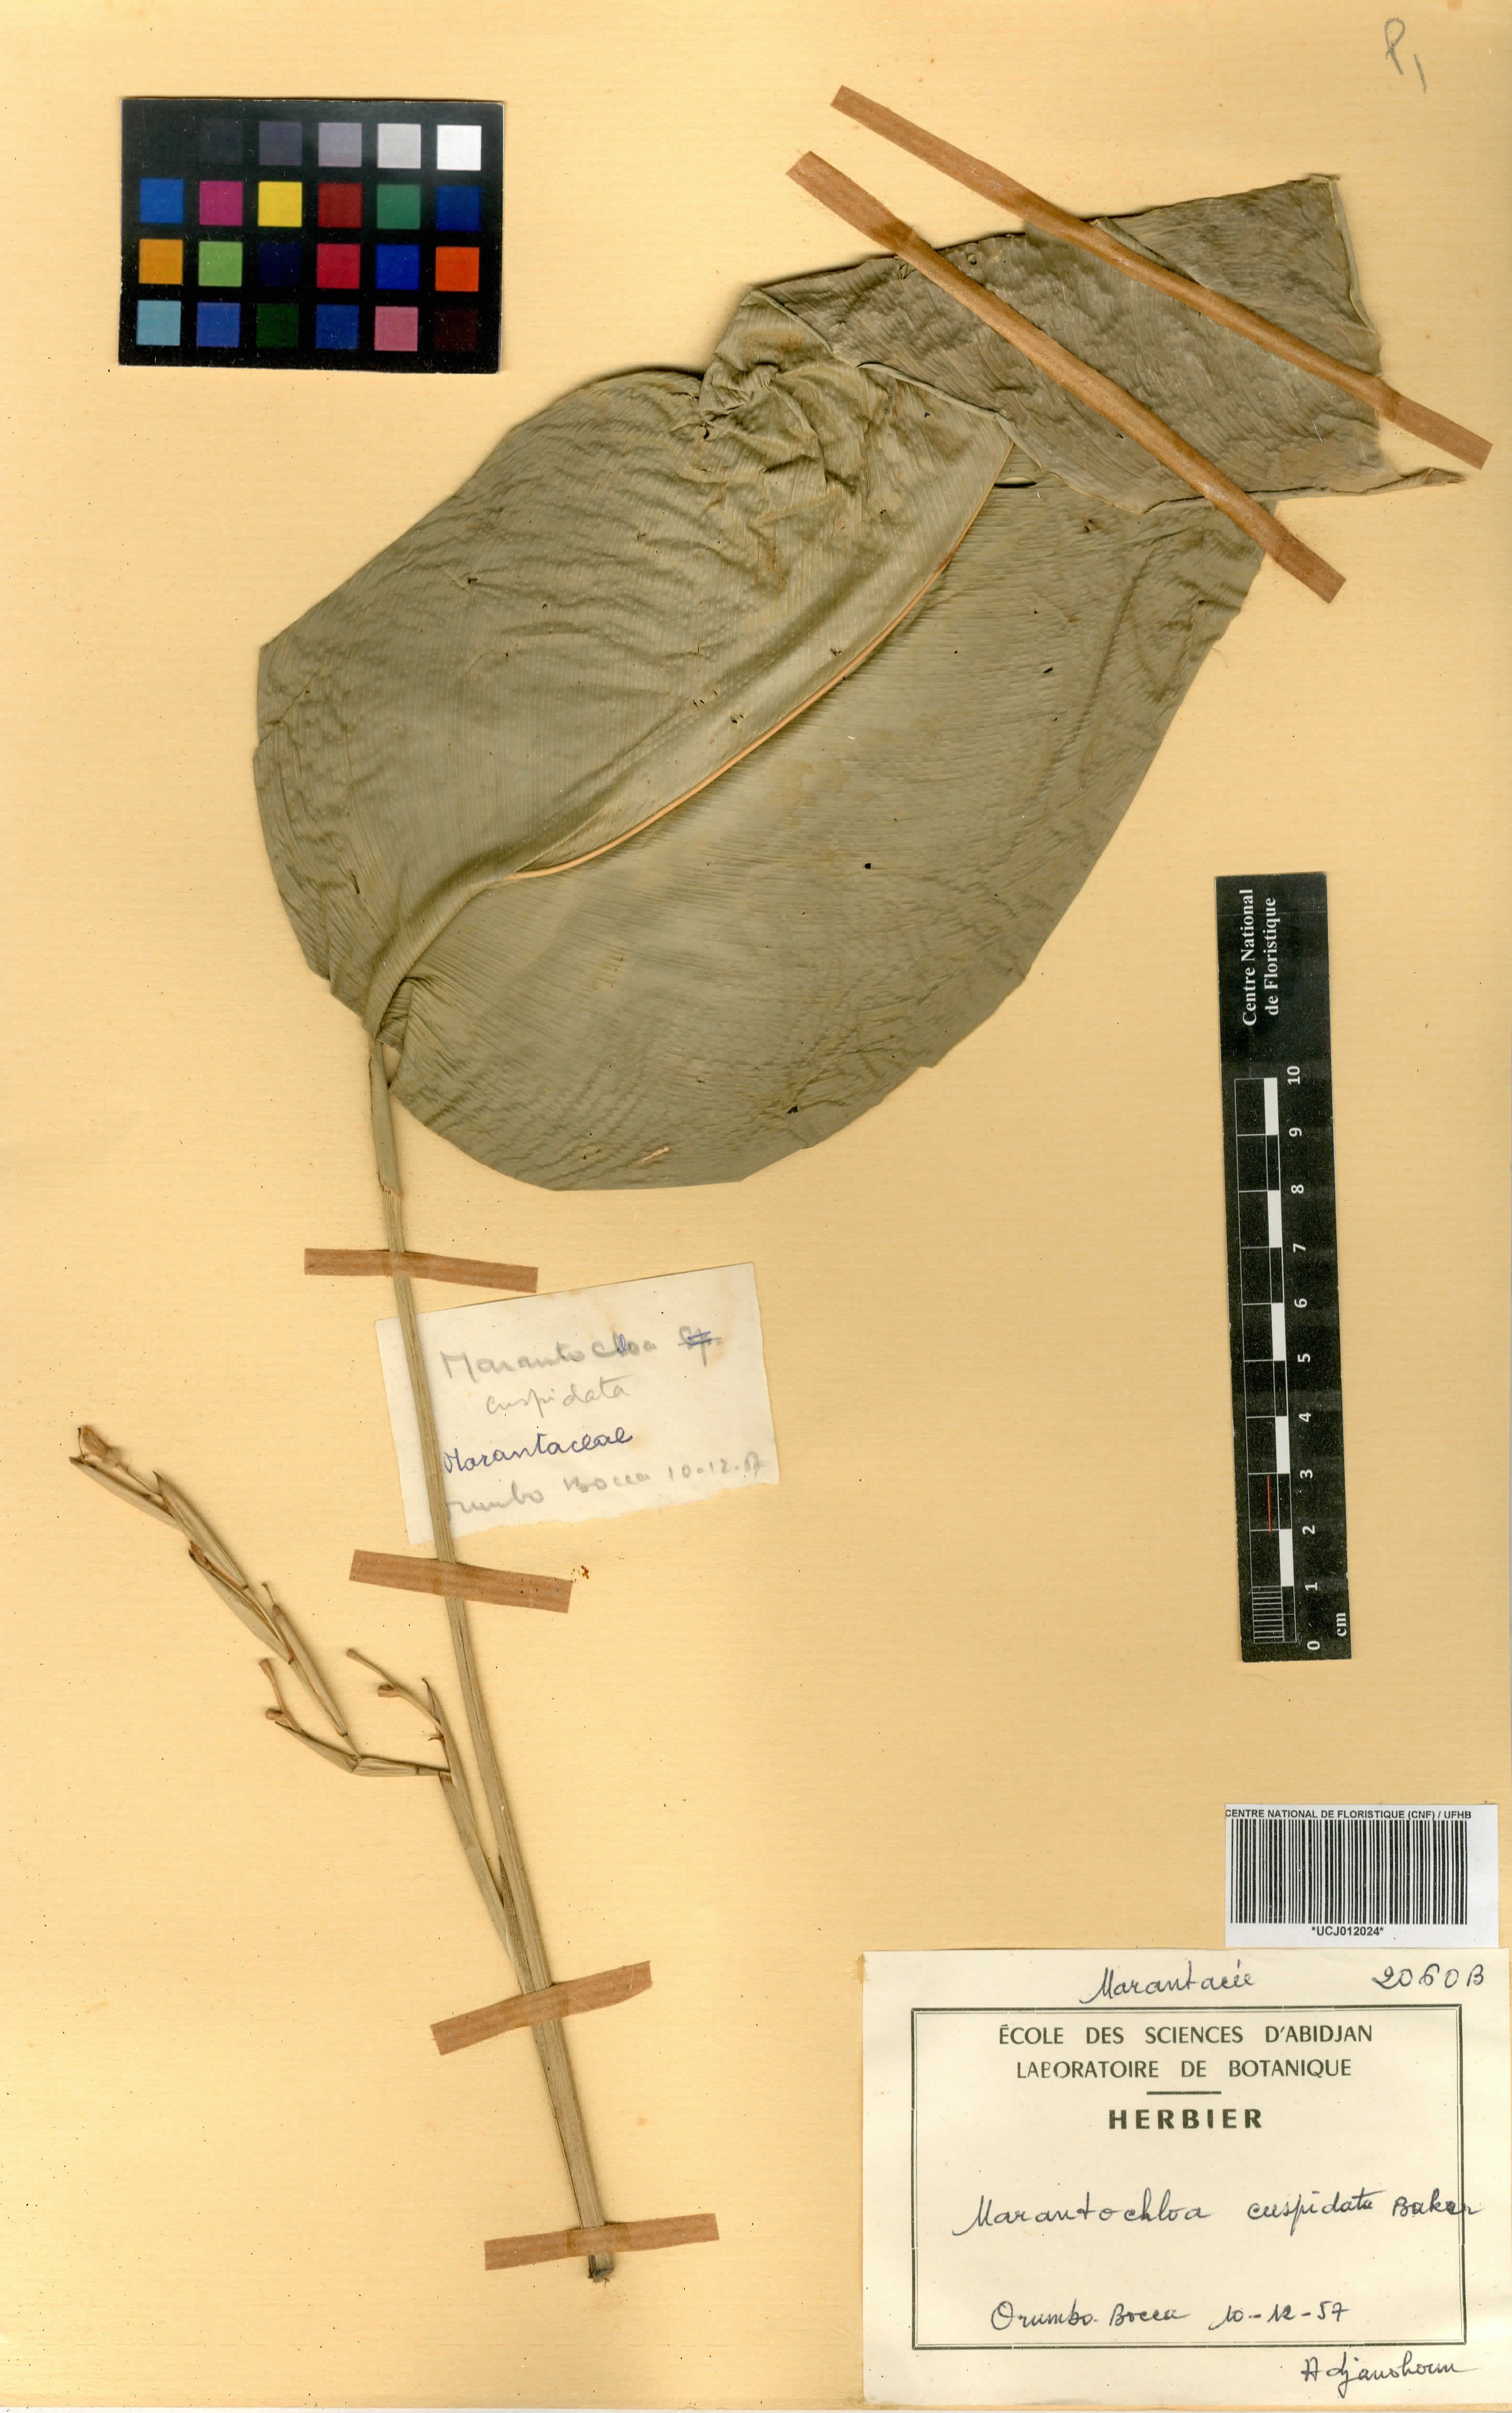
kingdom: Plantae
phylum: Tracheophyta
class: Liliopsida
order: Zingiberales
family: Marantaceae
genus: Marantochloa
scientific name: Marantochloa cuspidata
